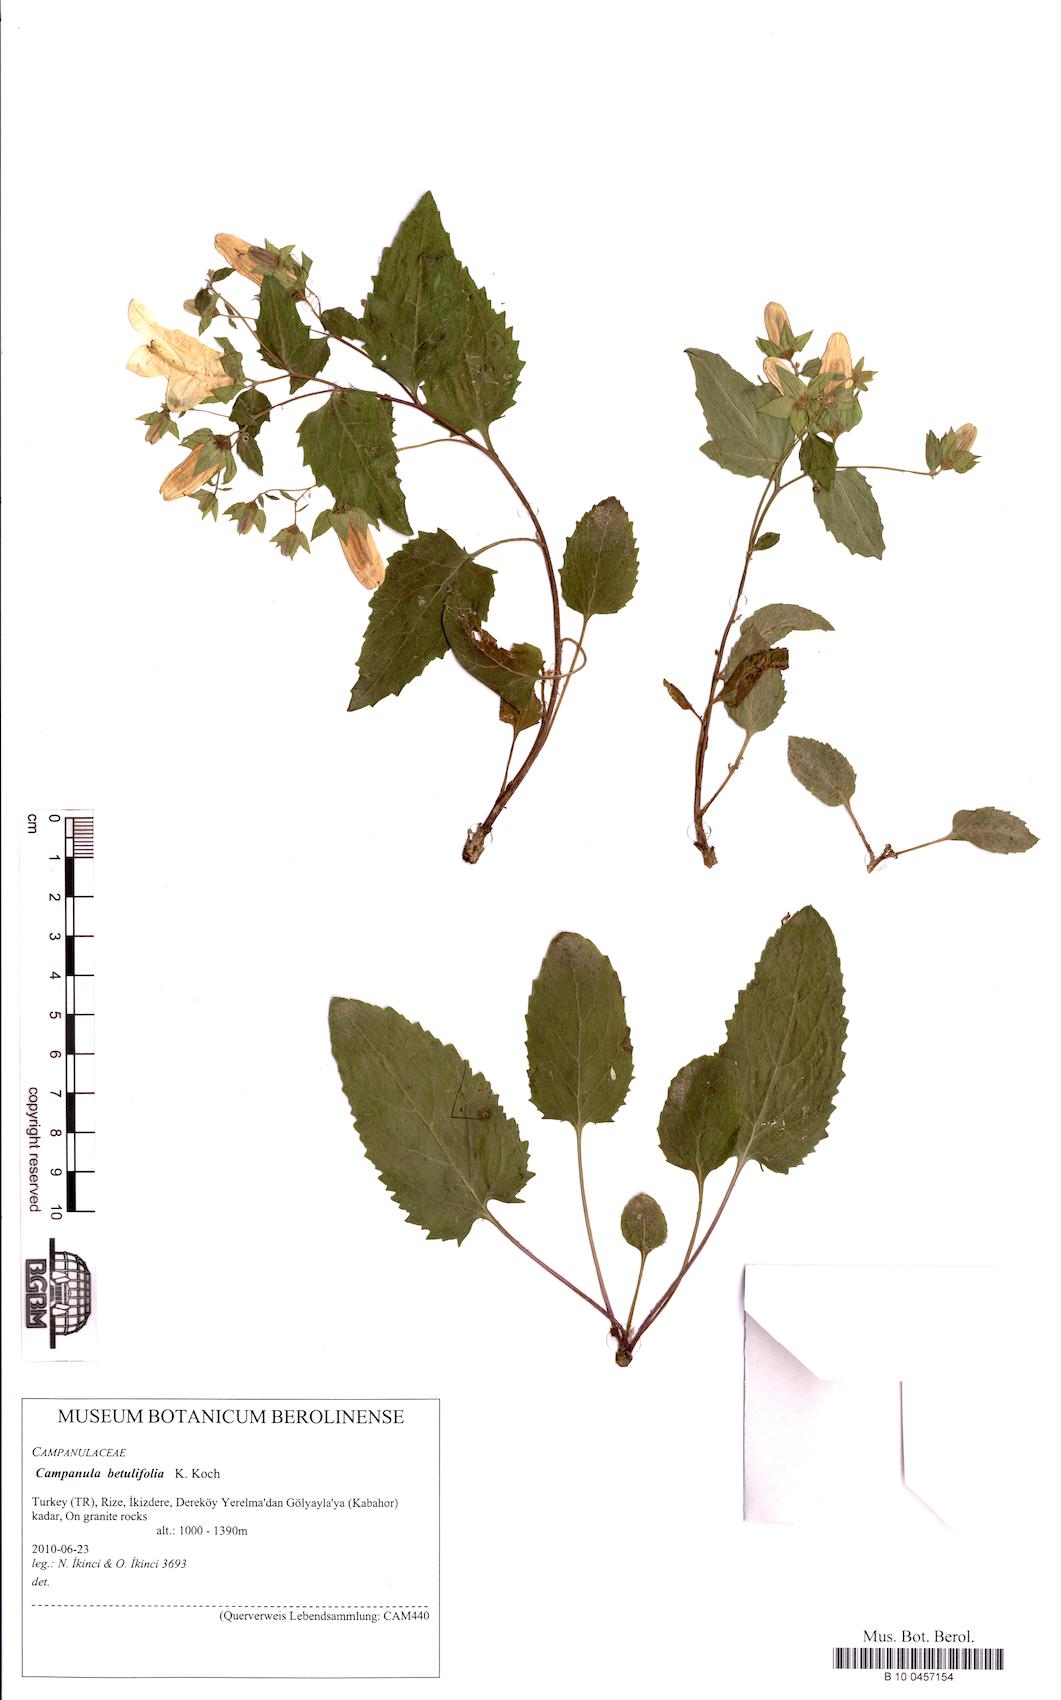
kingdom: Plantae
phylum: Tracheophyta
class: Magnoliopsida
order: Asterales
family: Campanulaceae
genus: Campanula
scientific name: Campanula betulifolia
